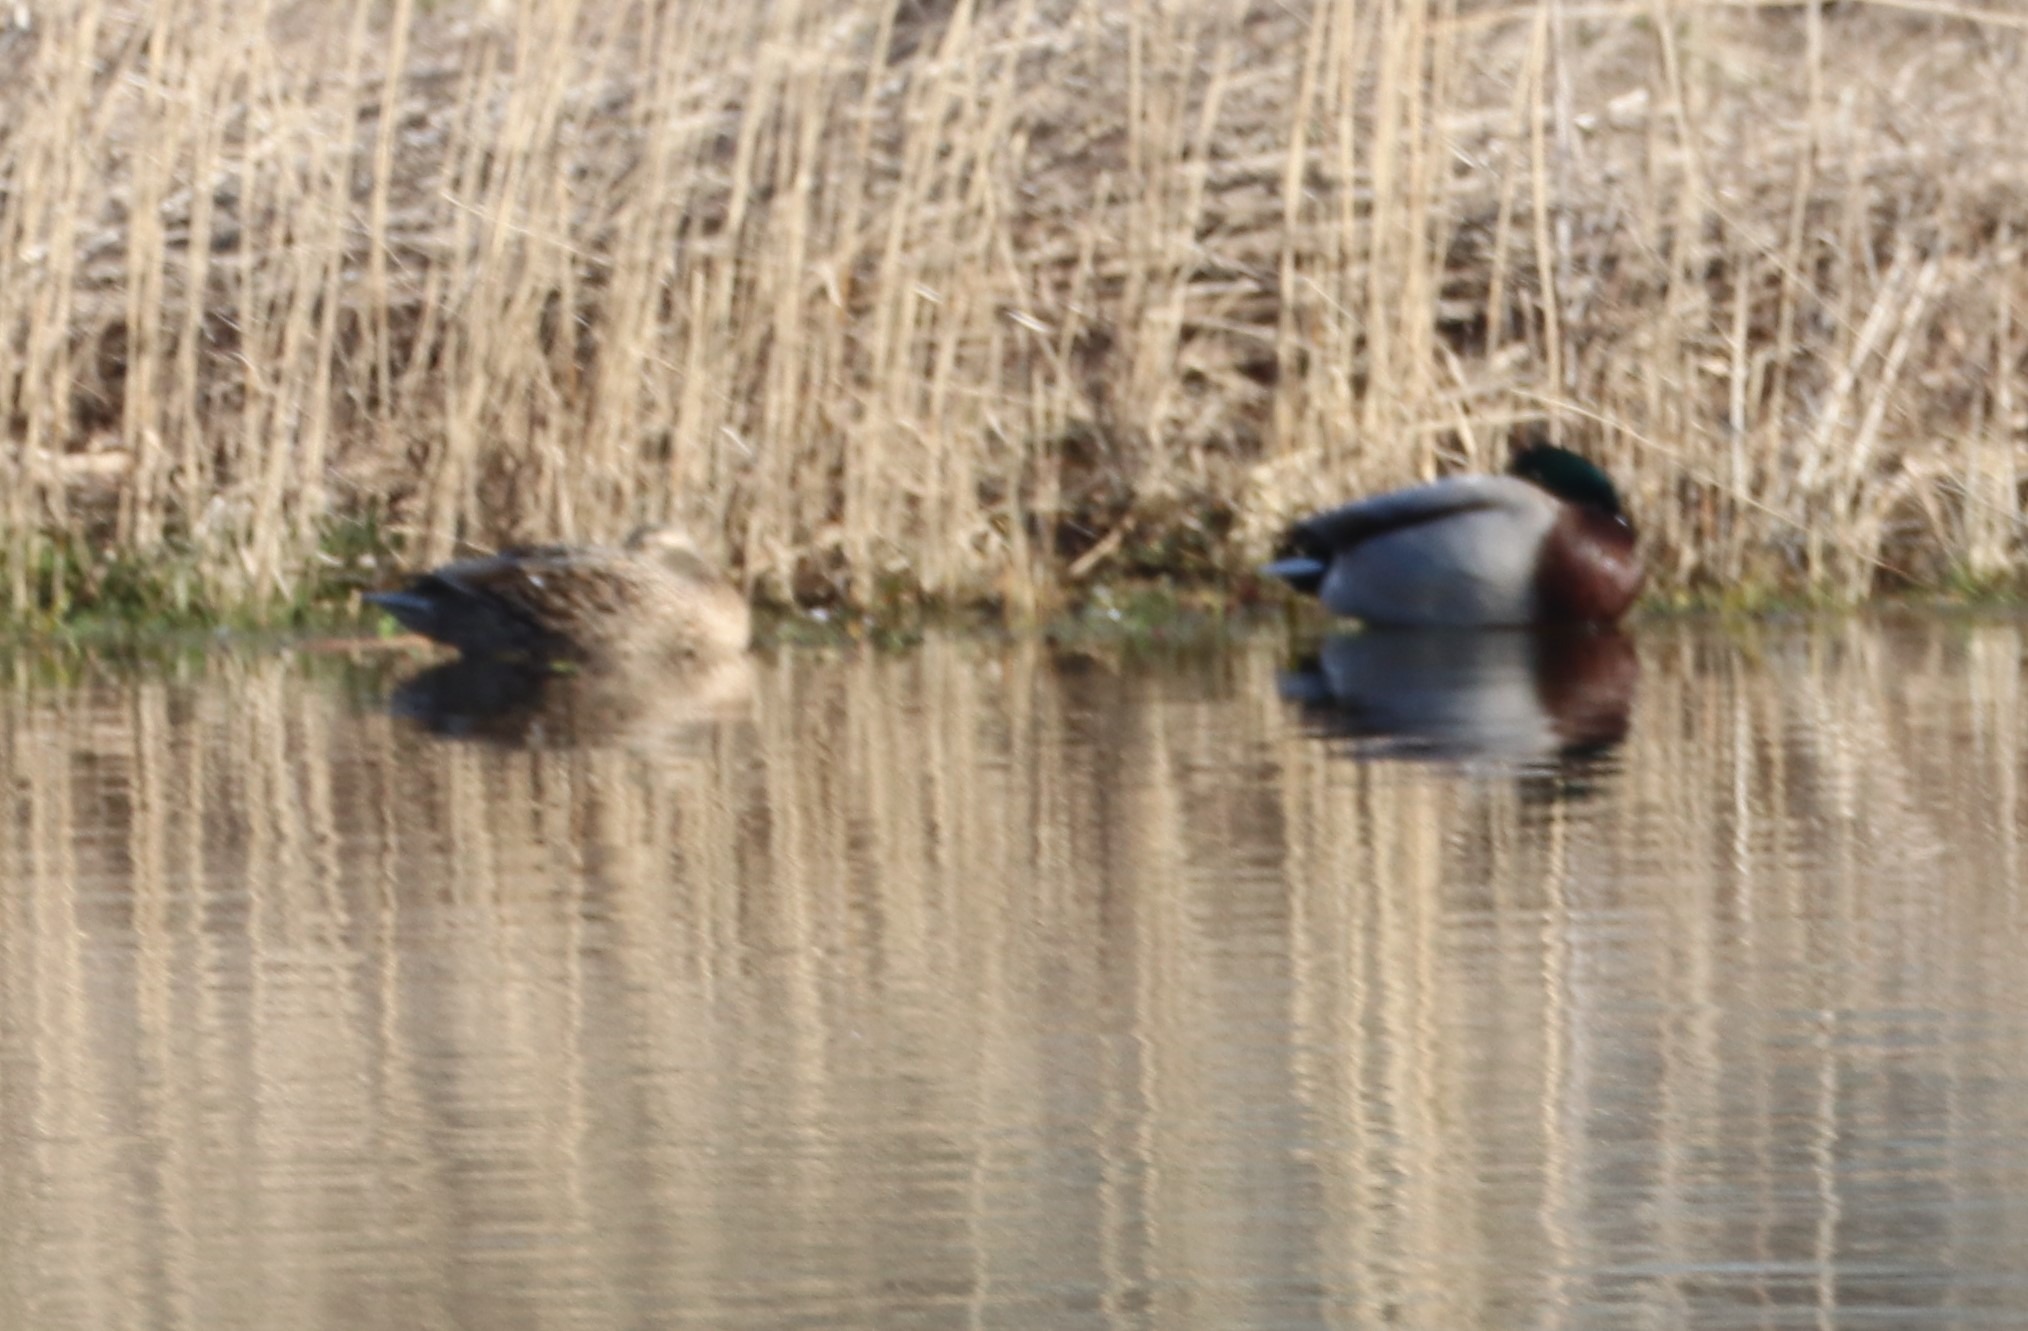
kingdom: Animalia
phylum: Chordata
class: Aves
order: Anseriformes
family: Anatidae
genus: Anas
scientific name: Anas platyrhynchos
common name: Gråand
